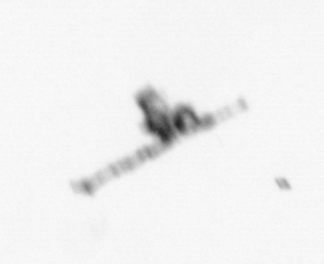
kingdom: Animalia
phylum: Arthropoda
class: Copepoda
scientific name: Copepoda
